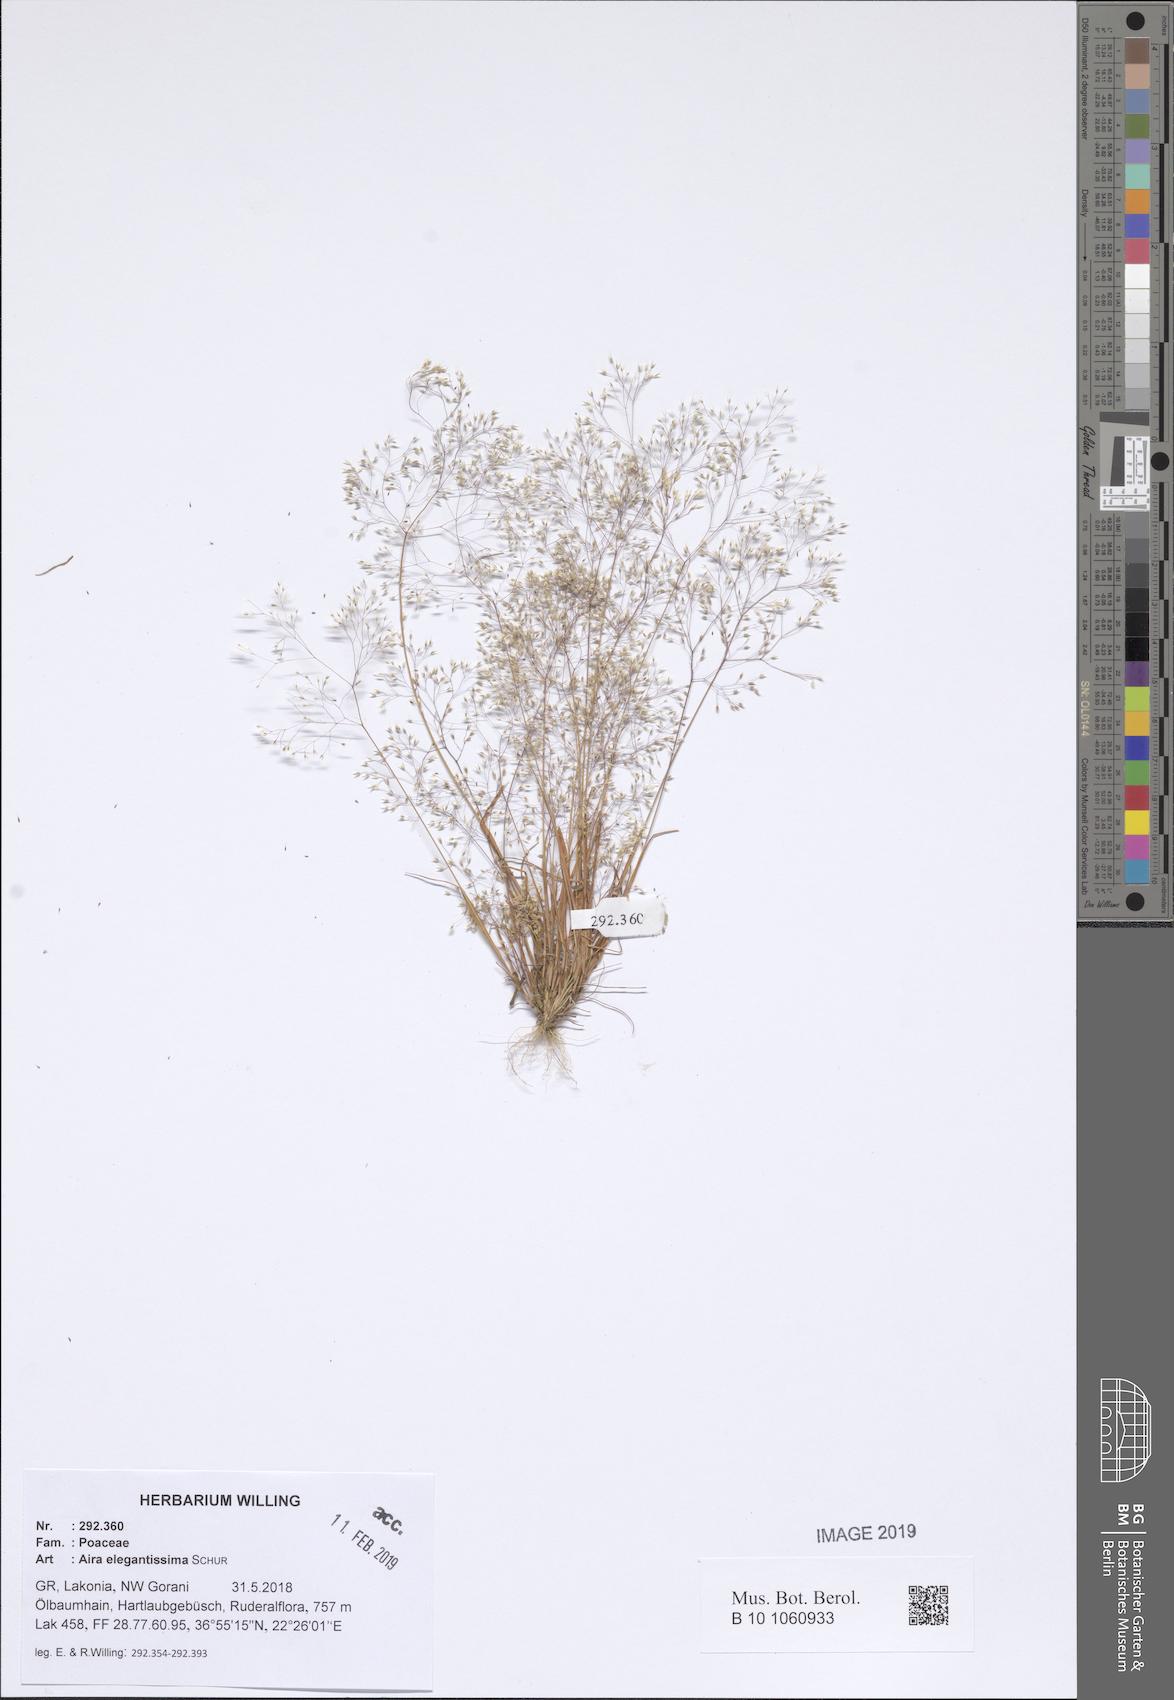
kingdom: Plantae
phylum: Tracheophyta
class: Liliopsida
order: Poales
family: Poaceae
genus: Aira
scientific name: Aira elegans
